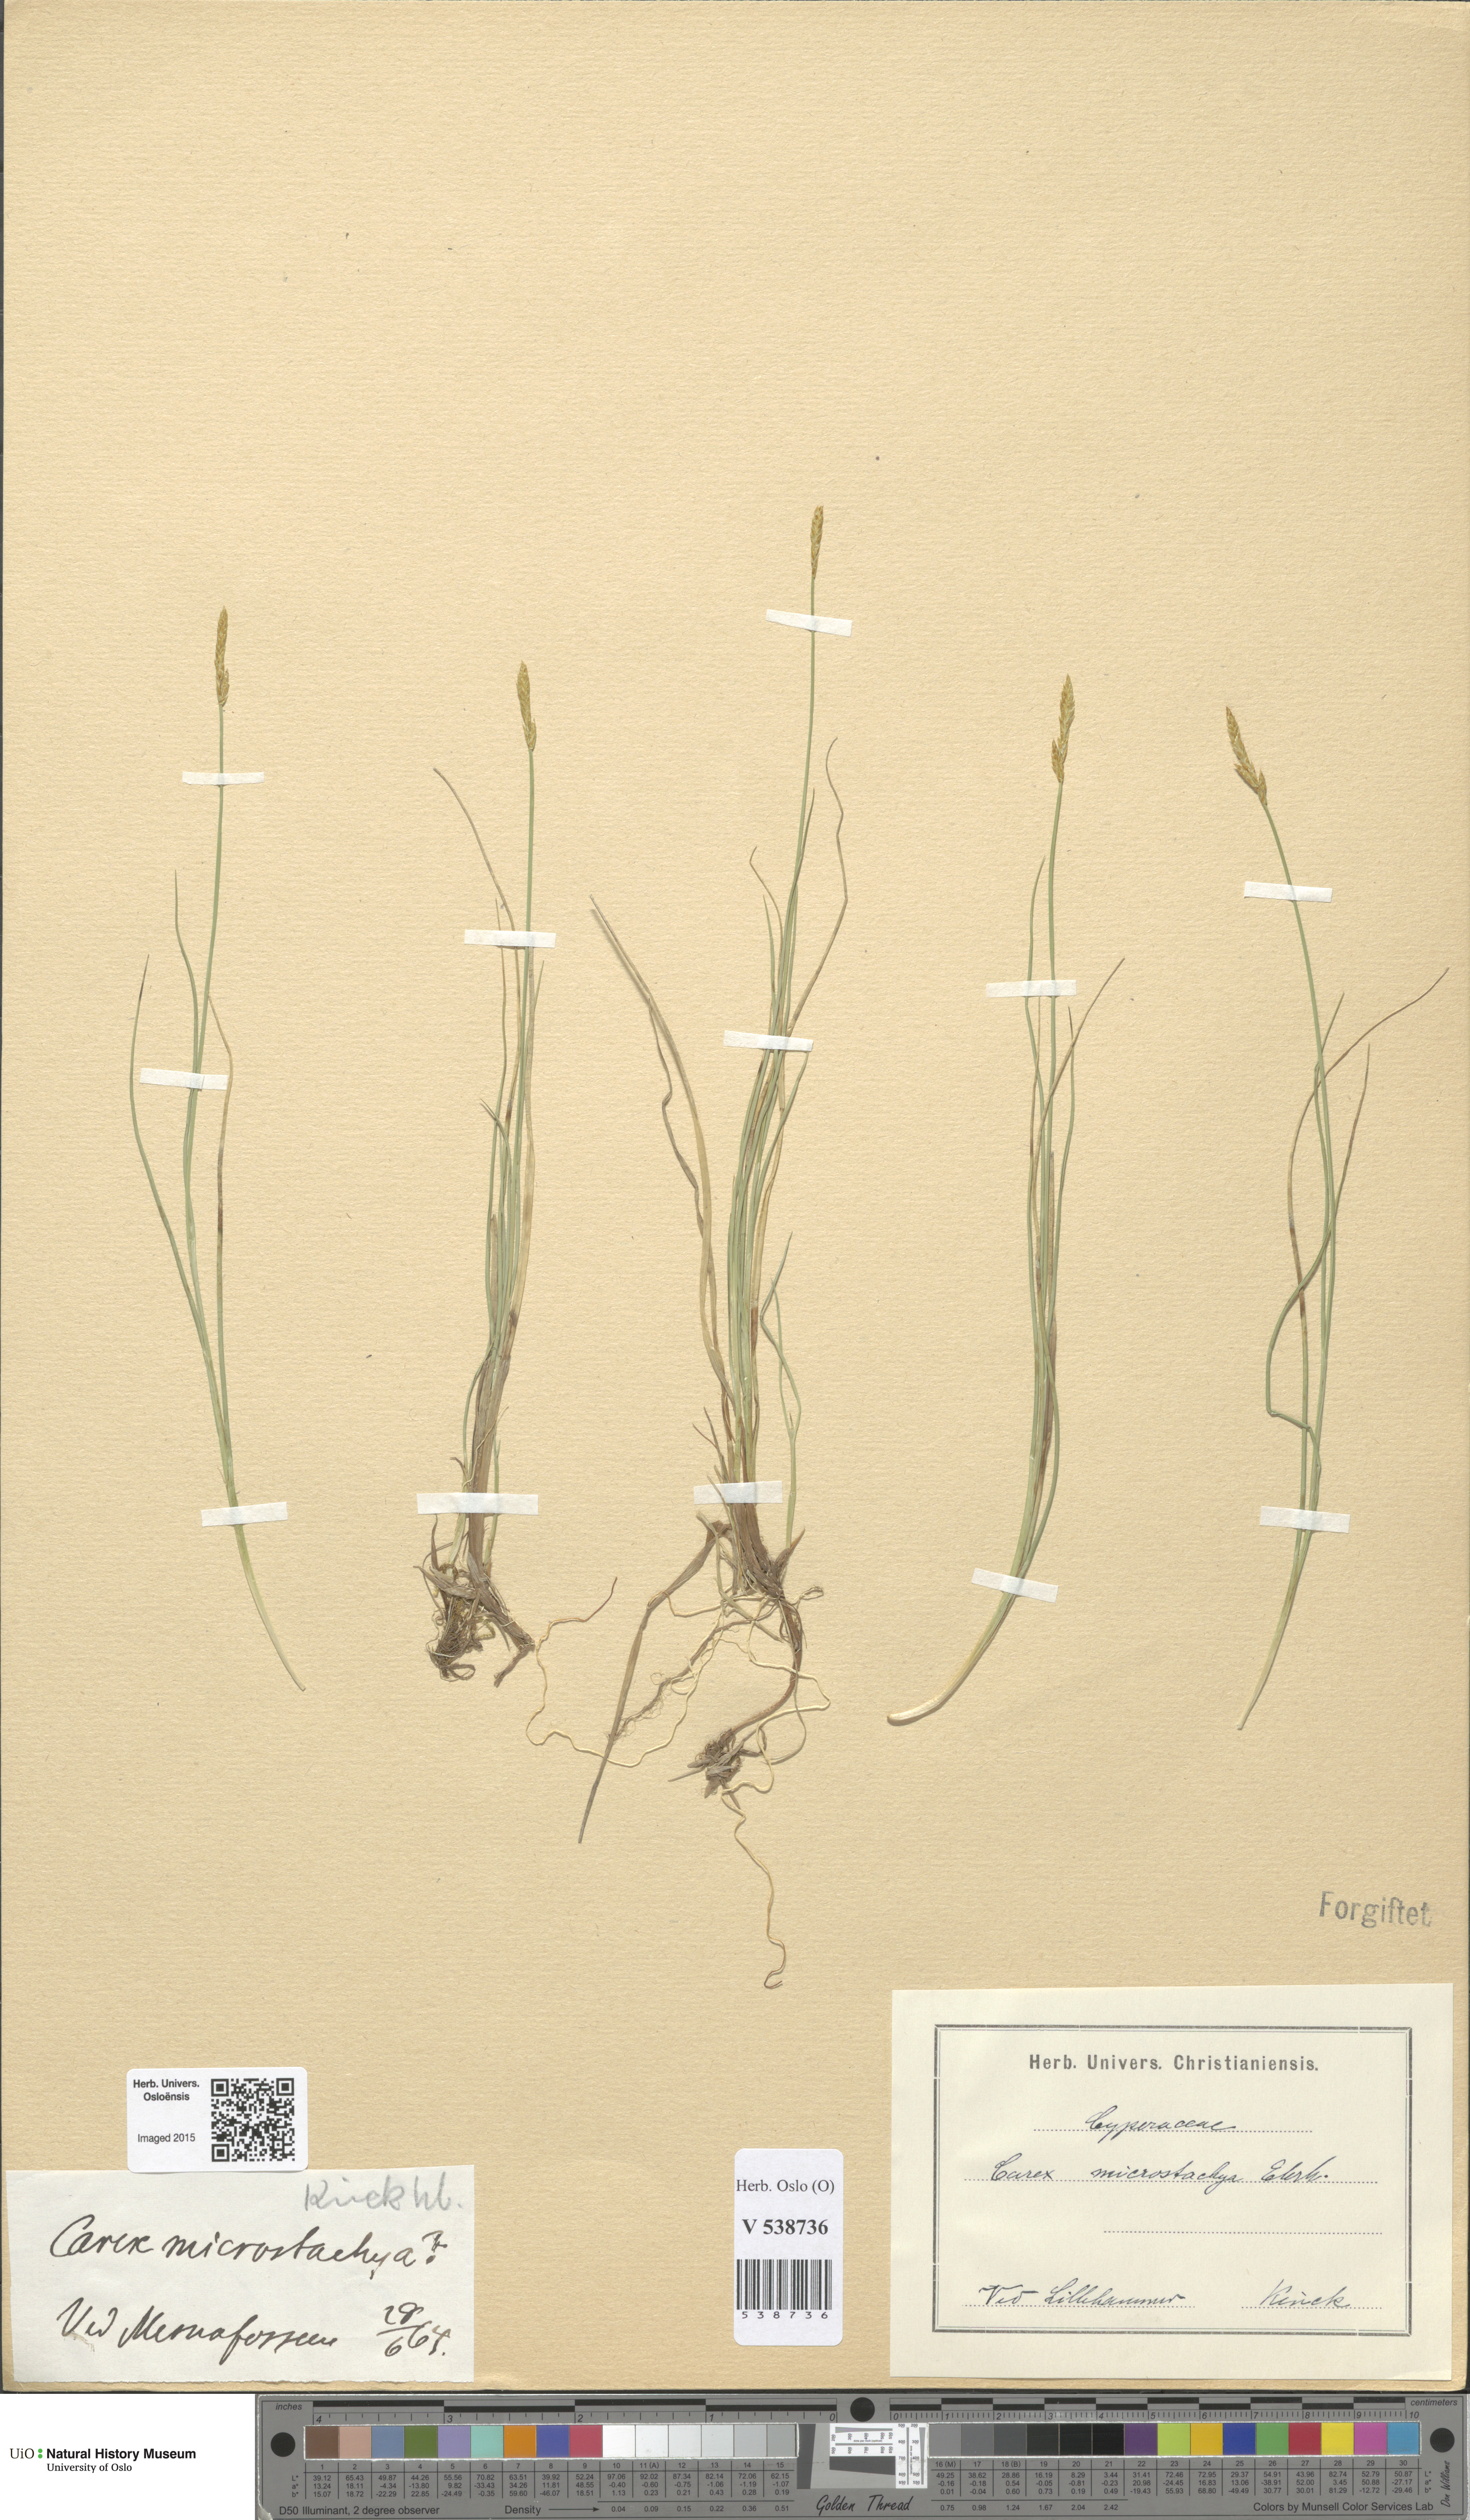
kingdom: Plantae
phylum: Tracheophyta
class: Liliopsida
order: Poales
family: Cyperaceae
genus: Carex
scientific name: Carex
